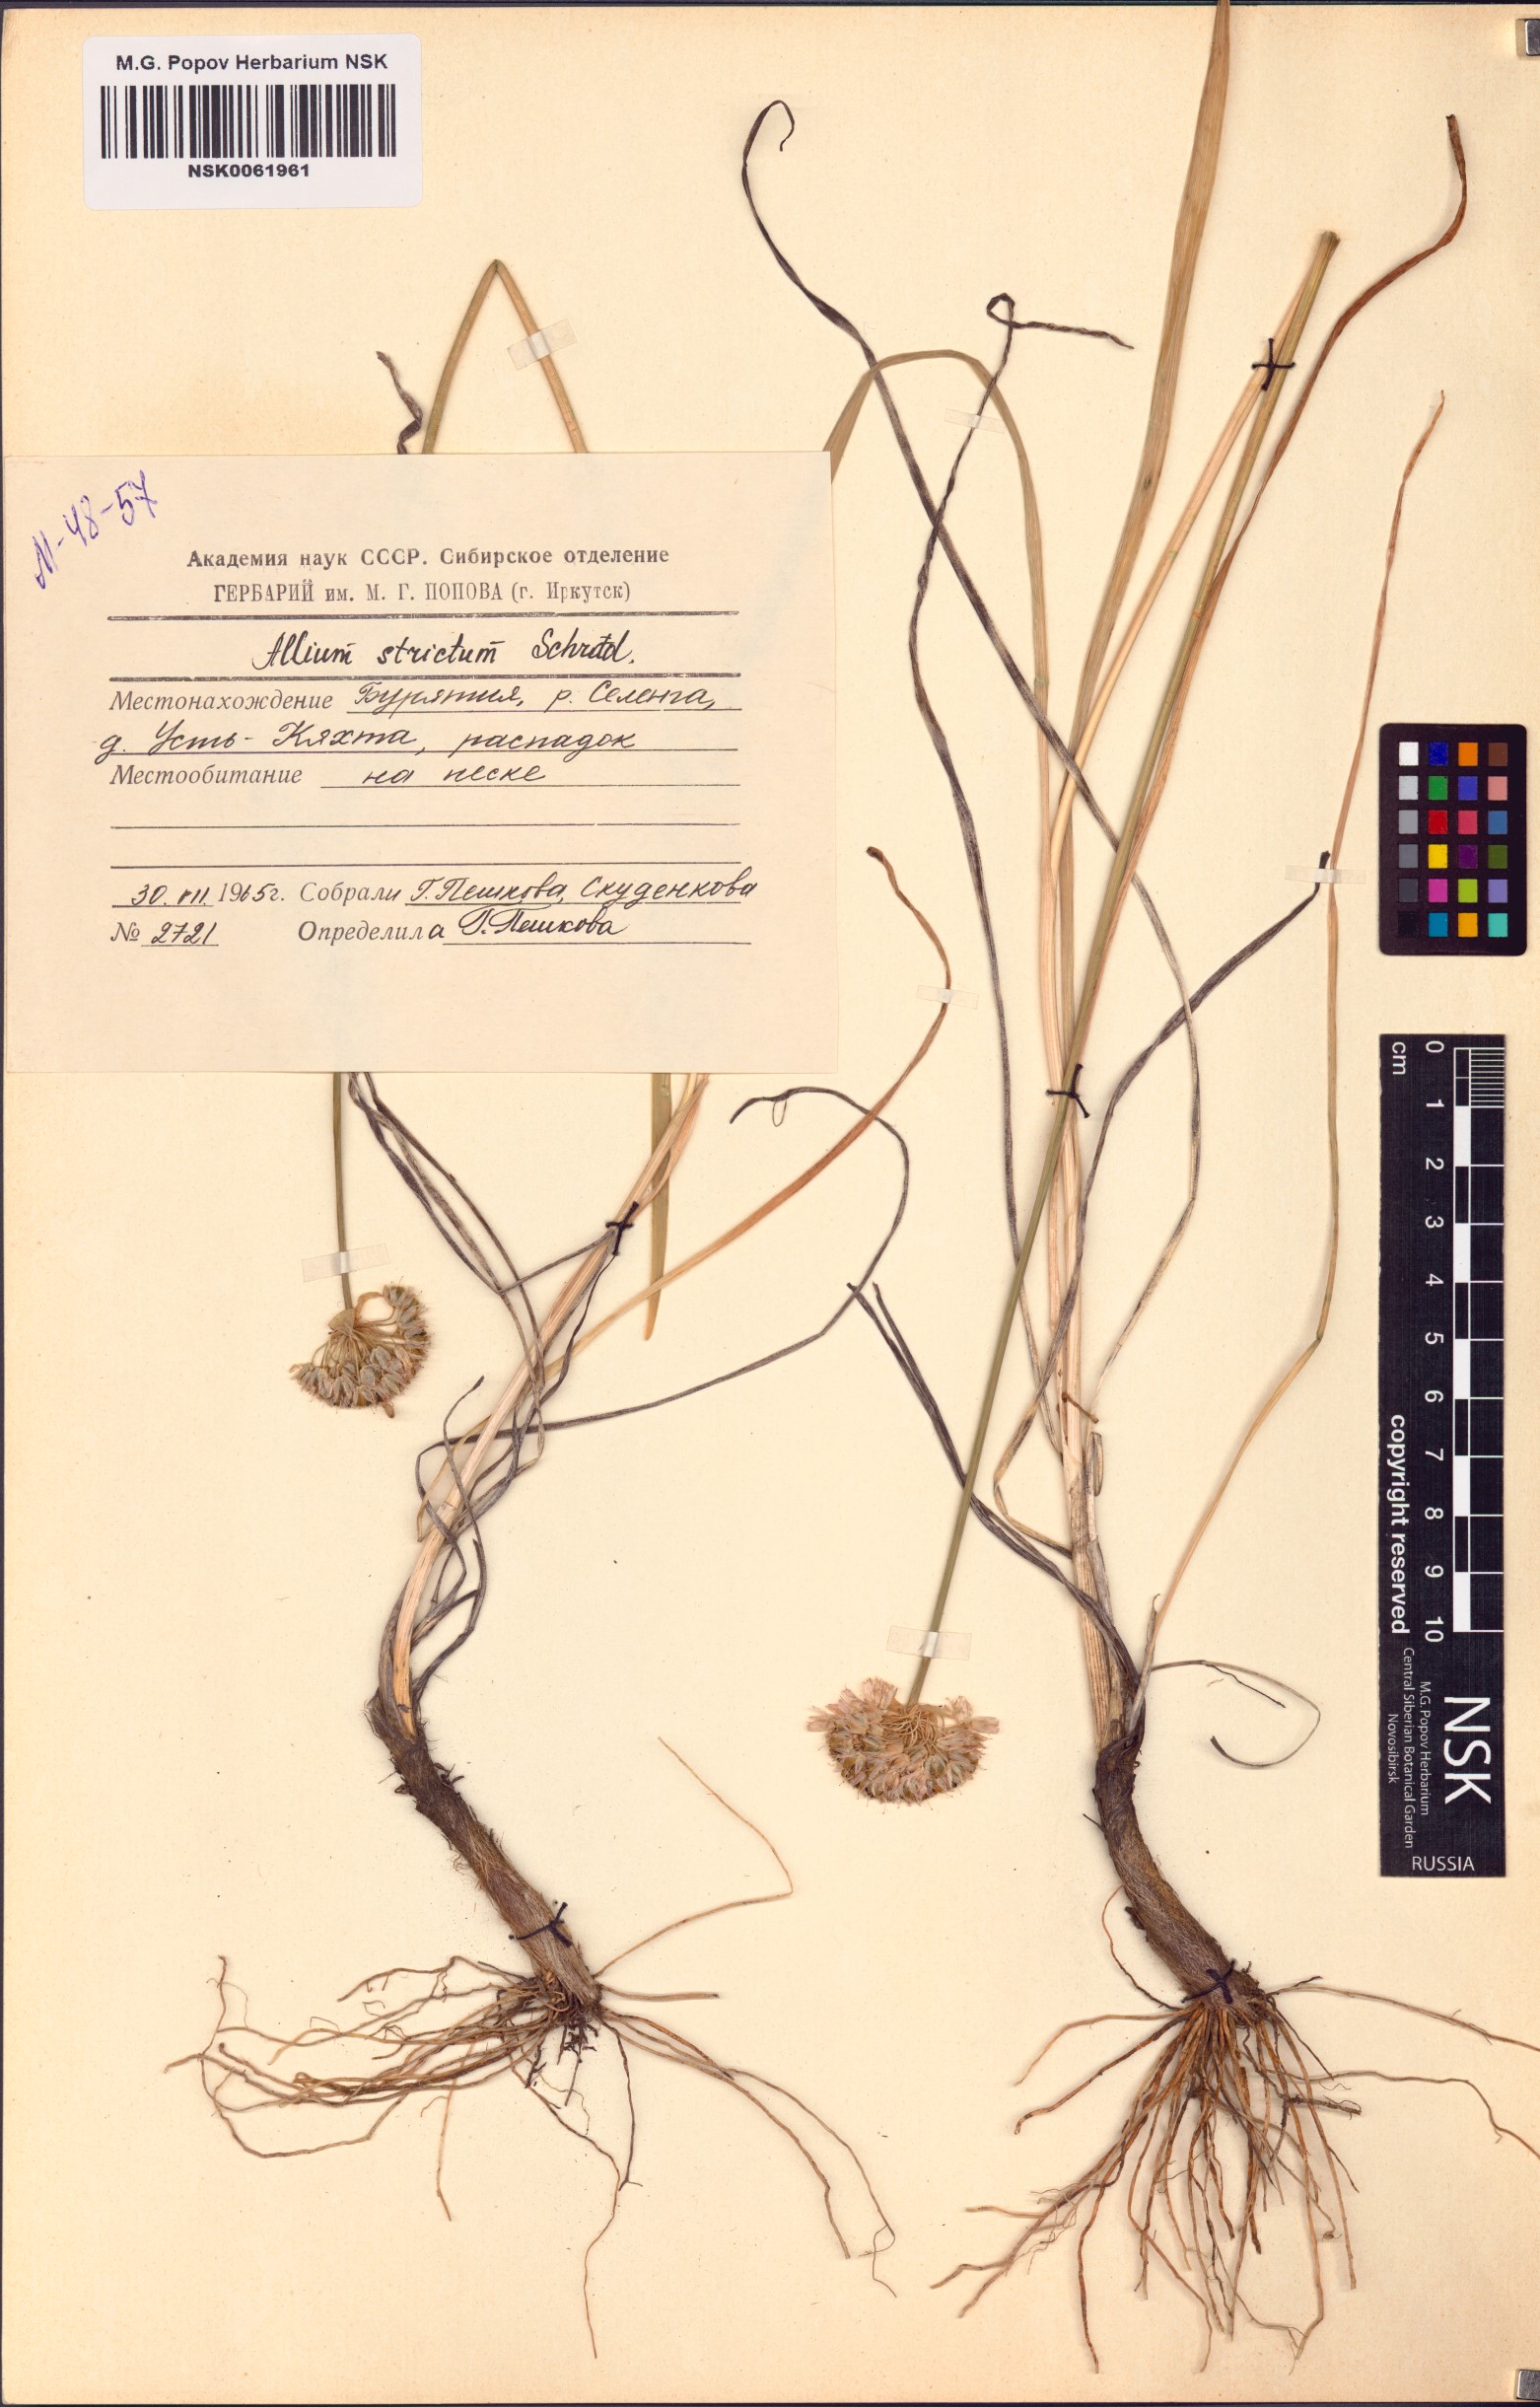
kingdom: Plantae
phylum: Tracheophyta
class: Liliopsida
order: Asparagales
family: Amaryllidaceae
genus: Allium
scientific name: Allium strictum
